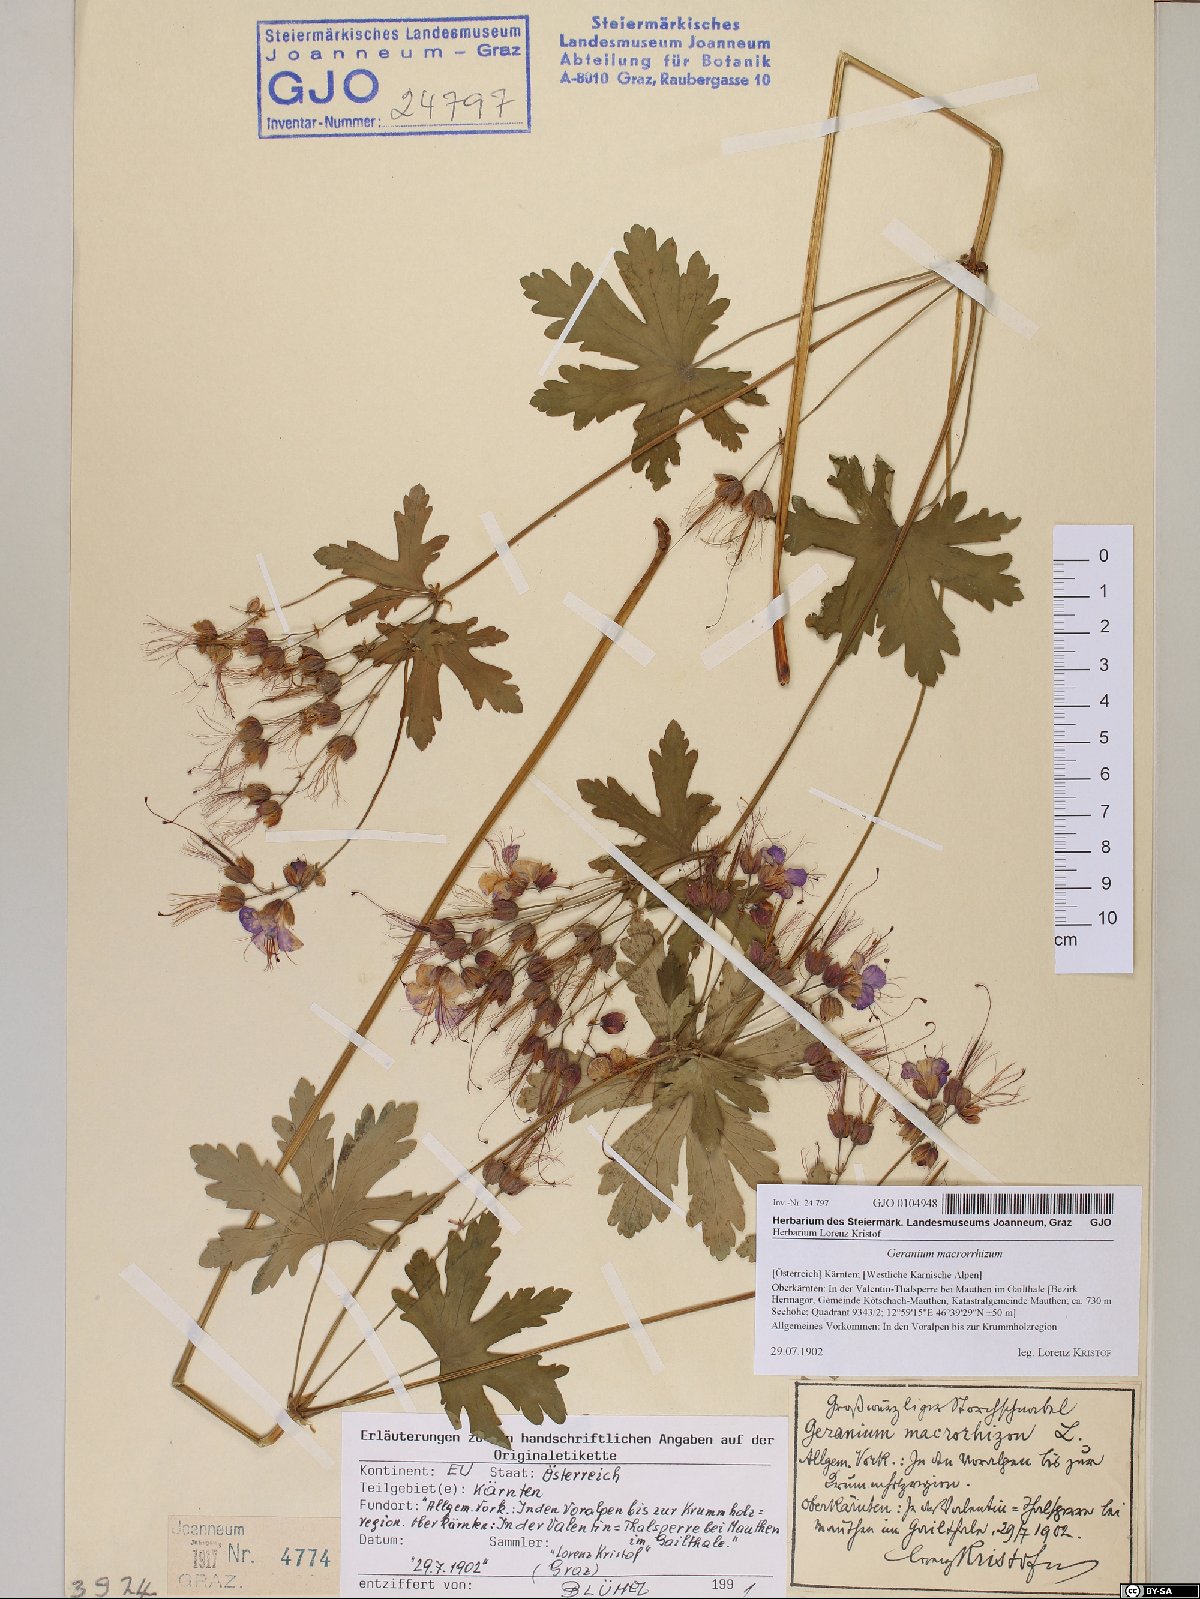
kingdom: Plantae
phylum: Tracheophyta
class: Magnoliopsida
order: Geraniales
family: Geraniaceae
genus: Geranium
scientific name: Geranium macrorrhizum
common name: Rock crane's-bill
